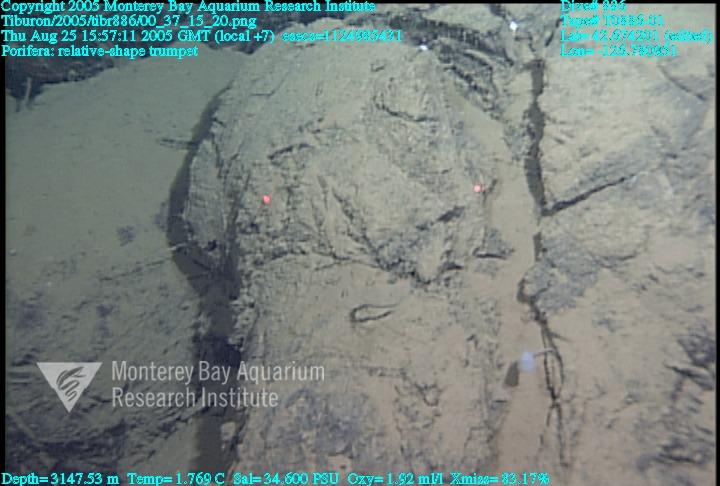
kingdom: Animalia
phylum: Porifera
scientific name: Porifera
